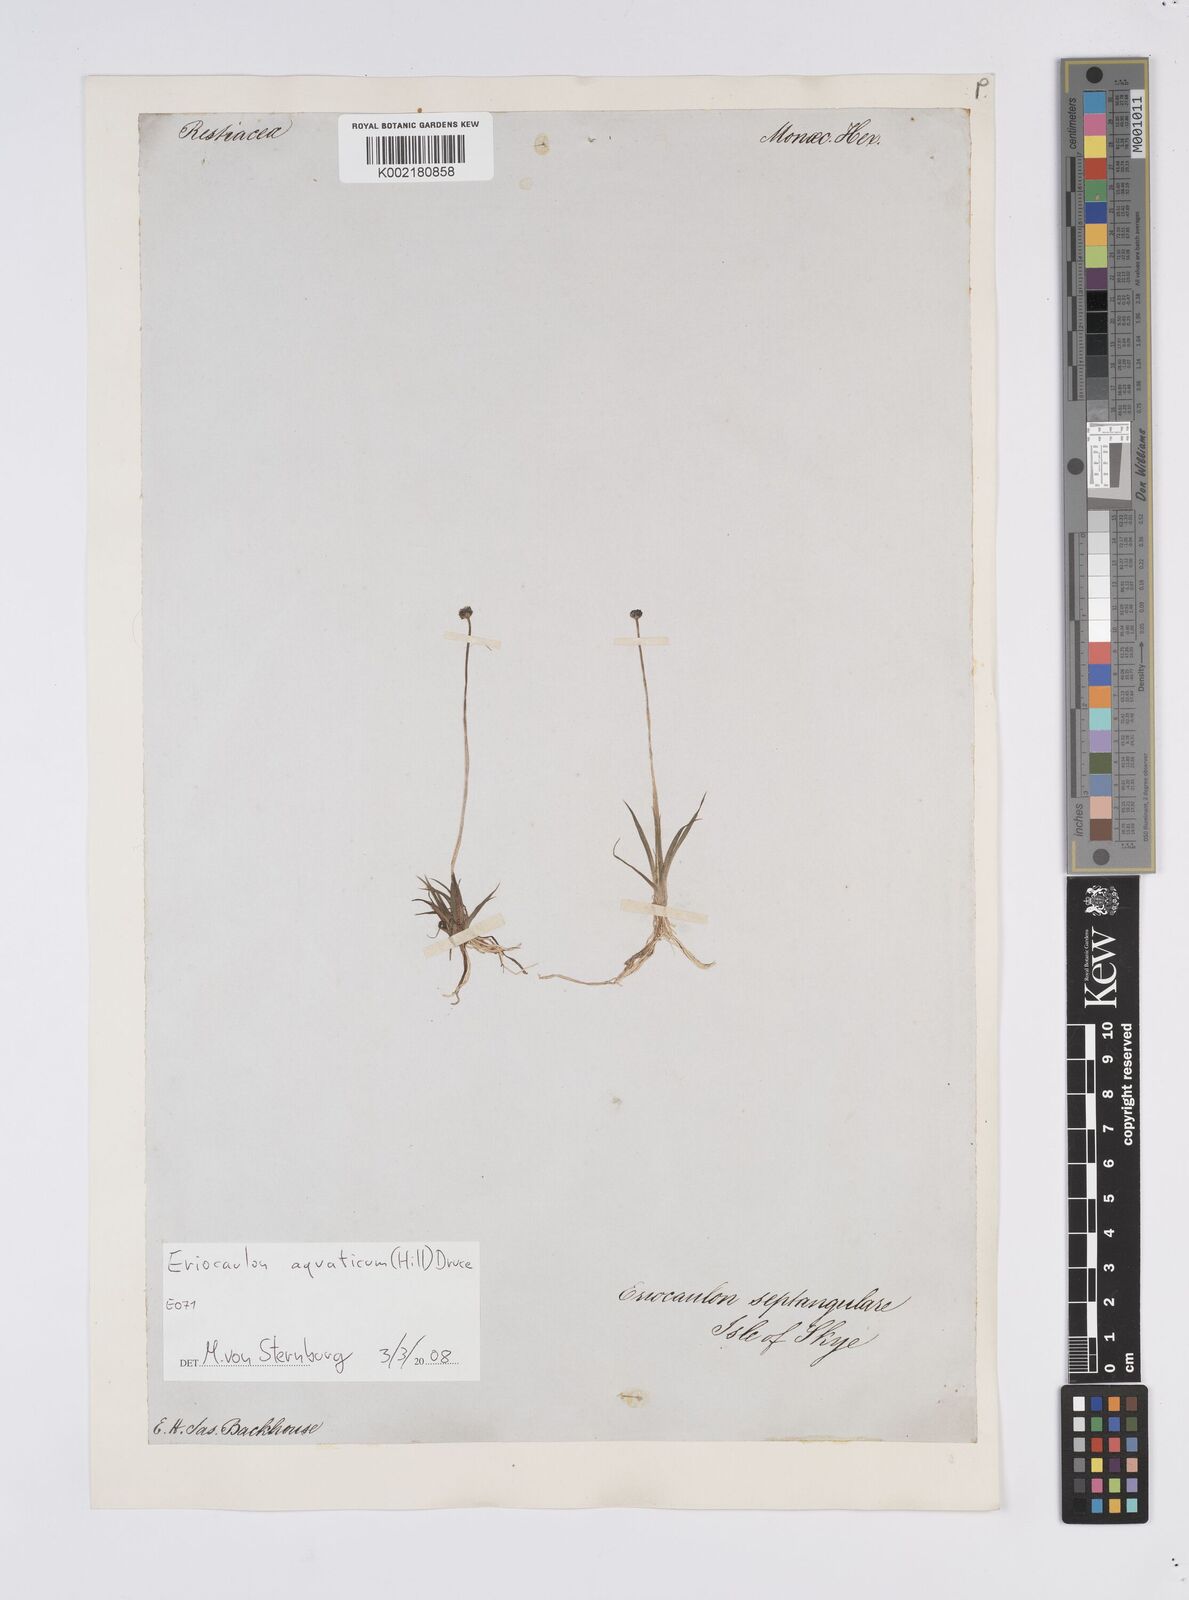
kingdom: Plantae
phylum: Tracheophyta
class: Liliopsida
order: Poales
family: Eriocaulaceae
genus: Eriocaulon
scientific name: Eriocaulon aquaticum
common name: Pipewort
